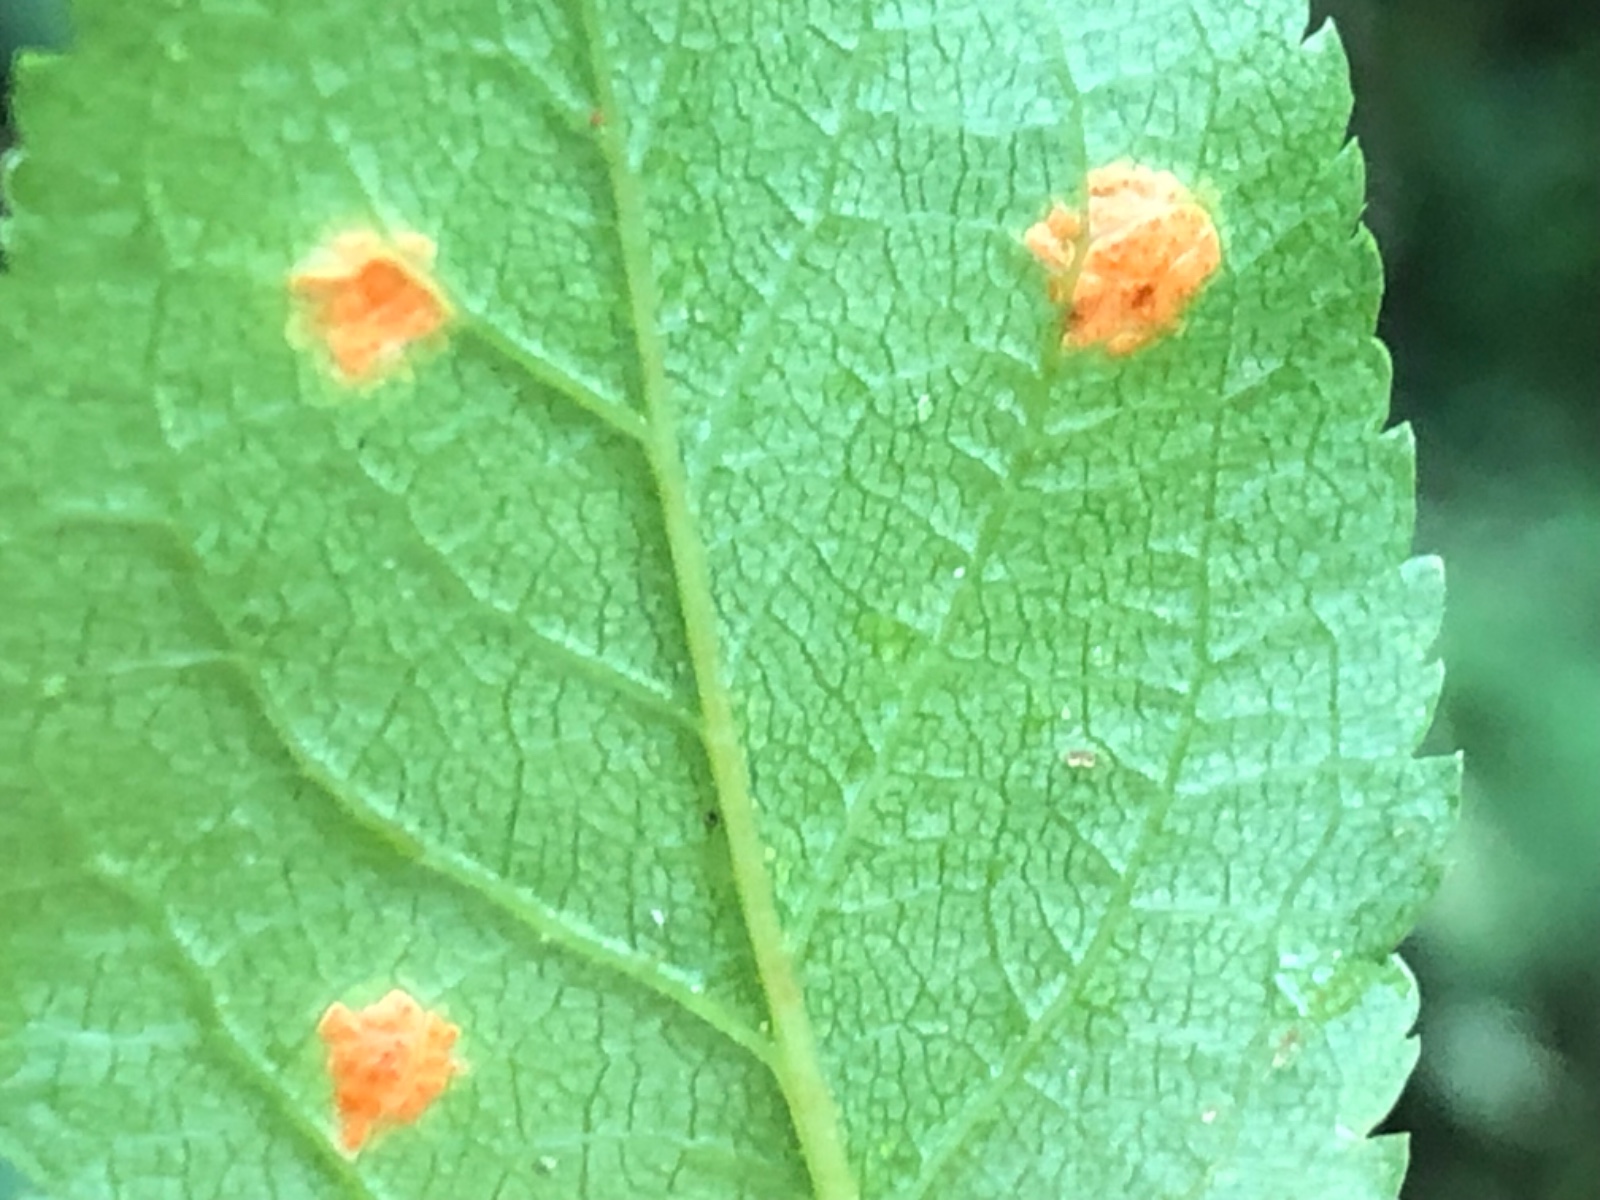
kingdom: Fungi
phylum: Basidiomycota
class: Pucciniomycetes
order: Pucciniales
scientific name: Pucciniales
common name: rustsvampeordenen
